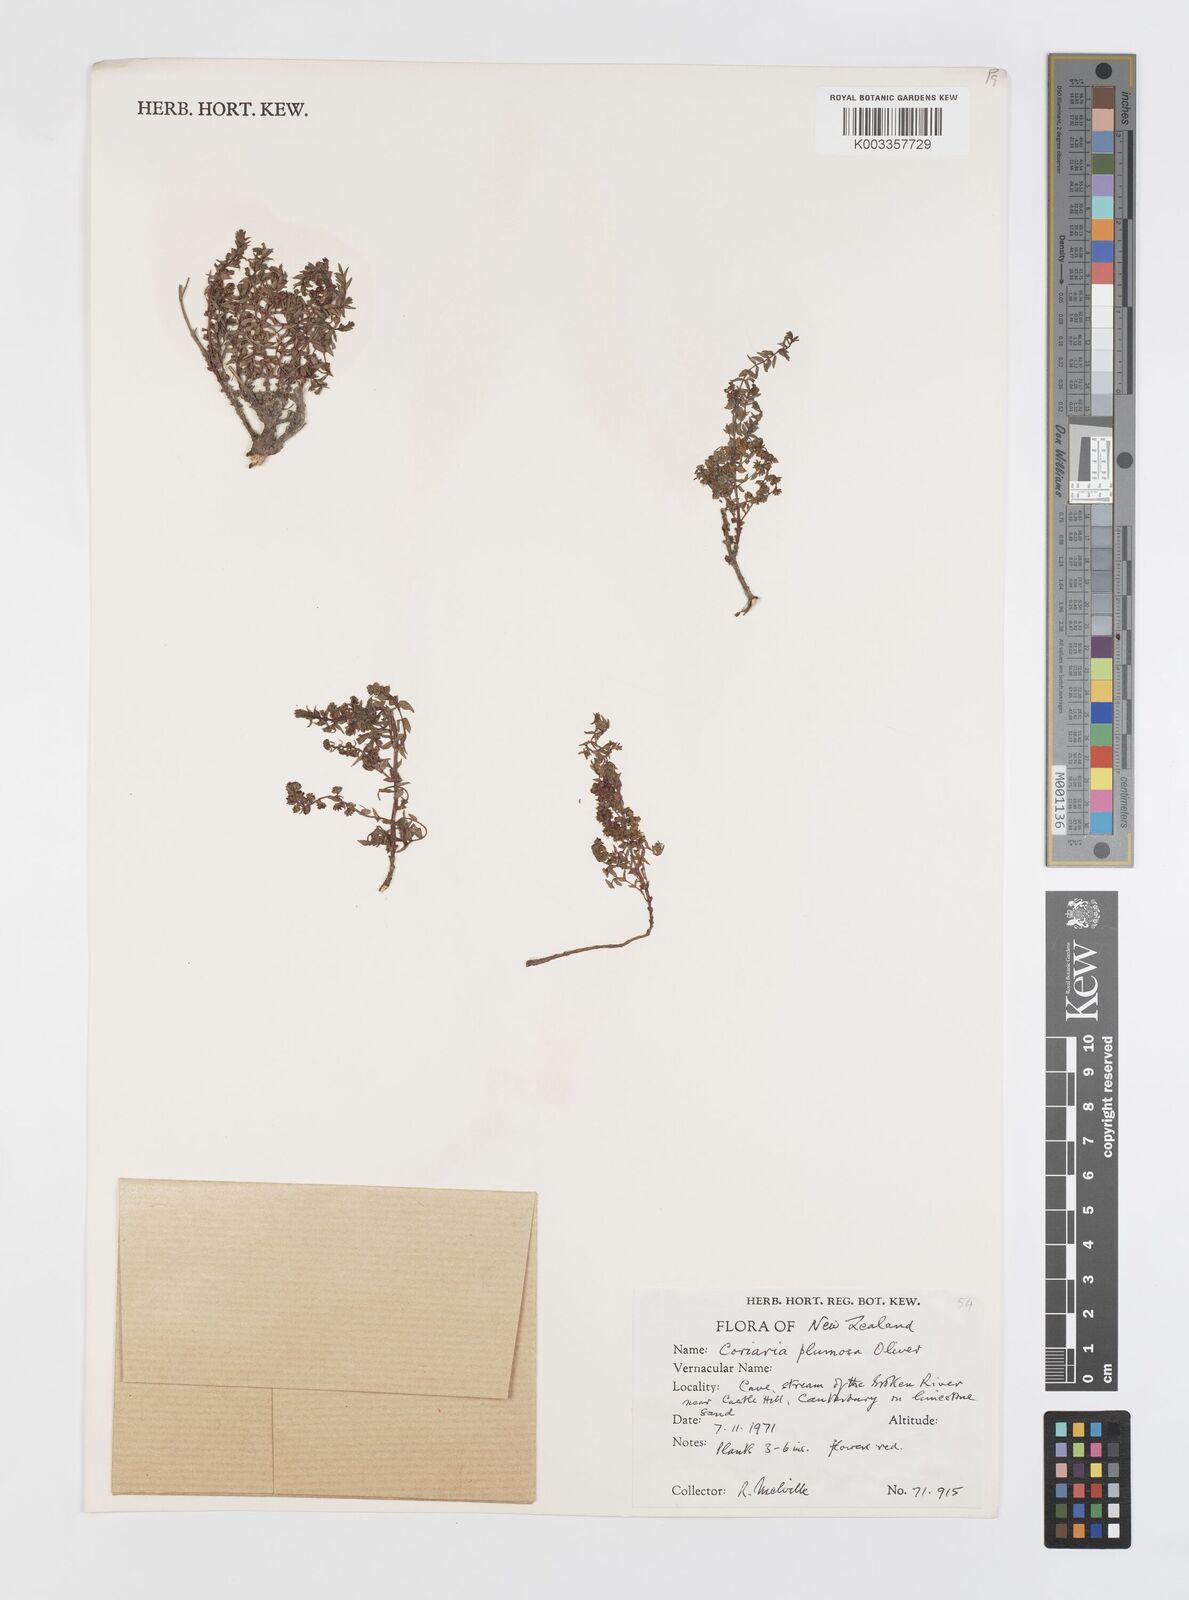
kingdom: Plantae
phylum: Tracheophyta
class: Magnoliopsida
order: Cucurbitales
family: Coriariaceae
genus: Coriaria
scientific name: Coriaria plumosa
